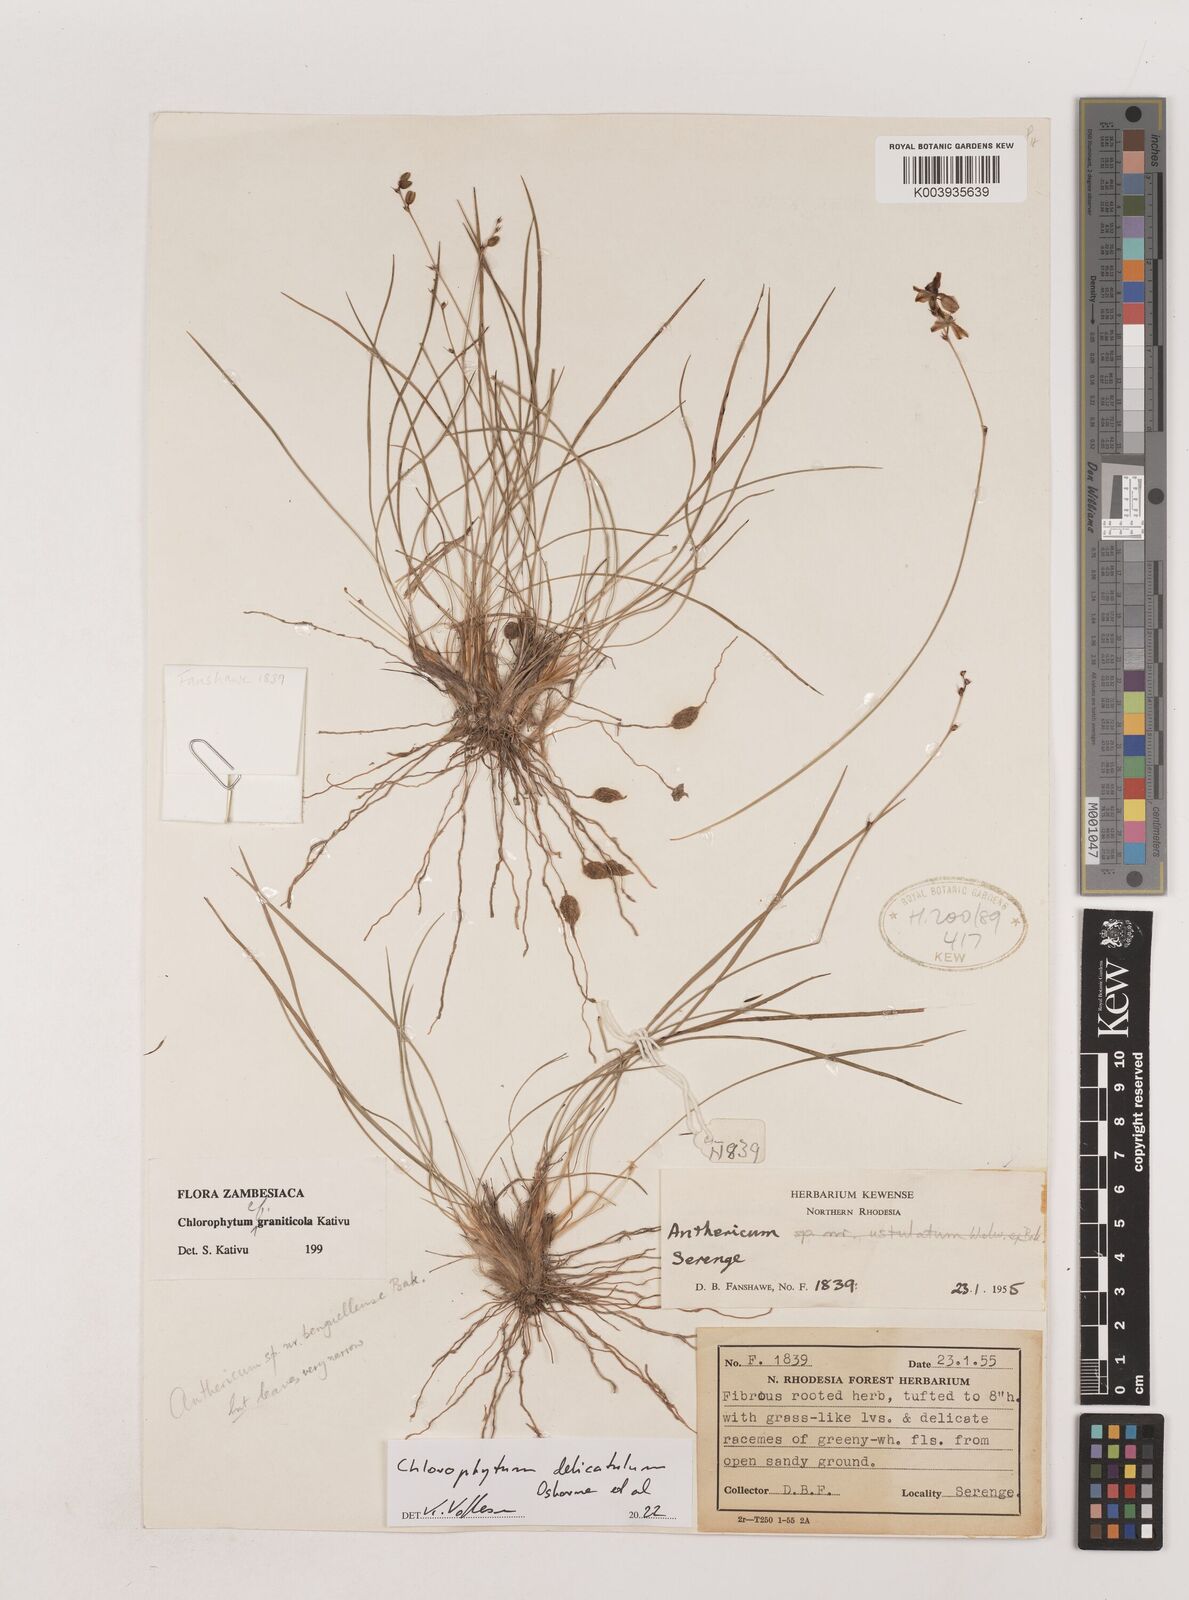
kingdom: Plantae
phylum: Tracheophyta
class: Liliopsida
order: Asparagales
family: Asparagaceae
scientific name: Asparagaceae
